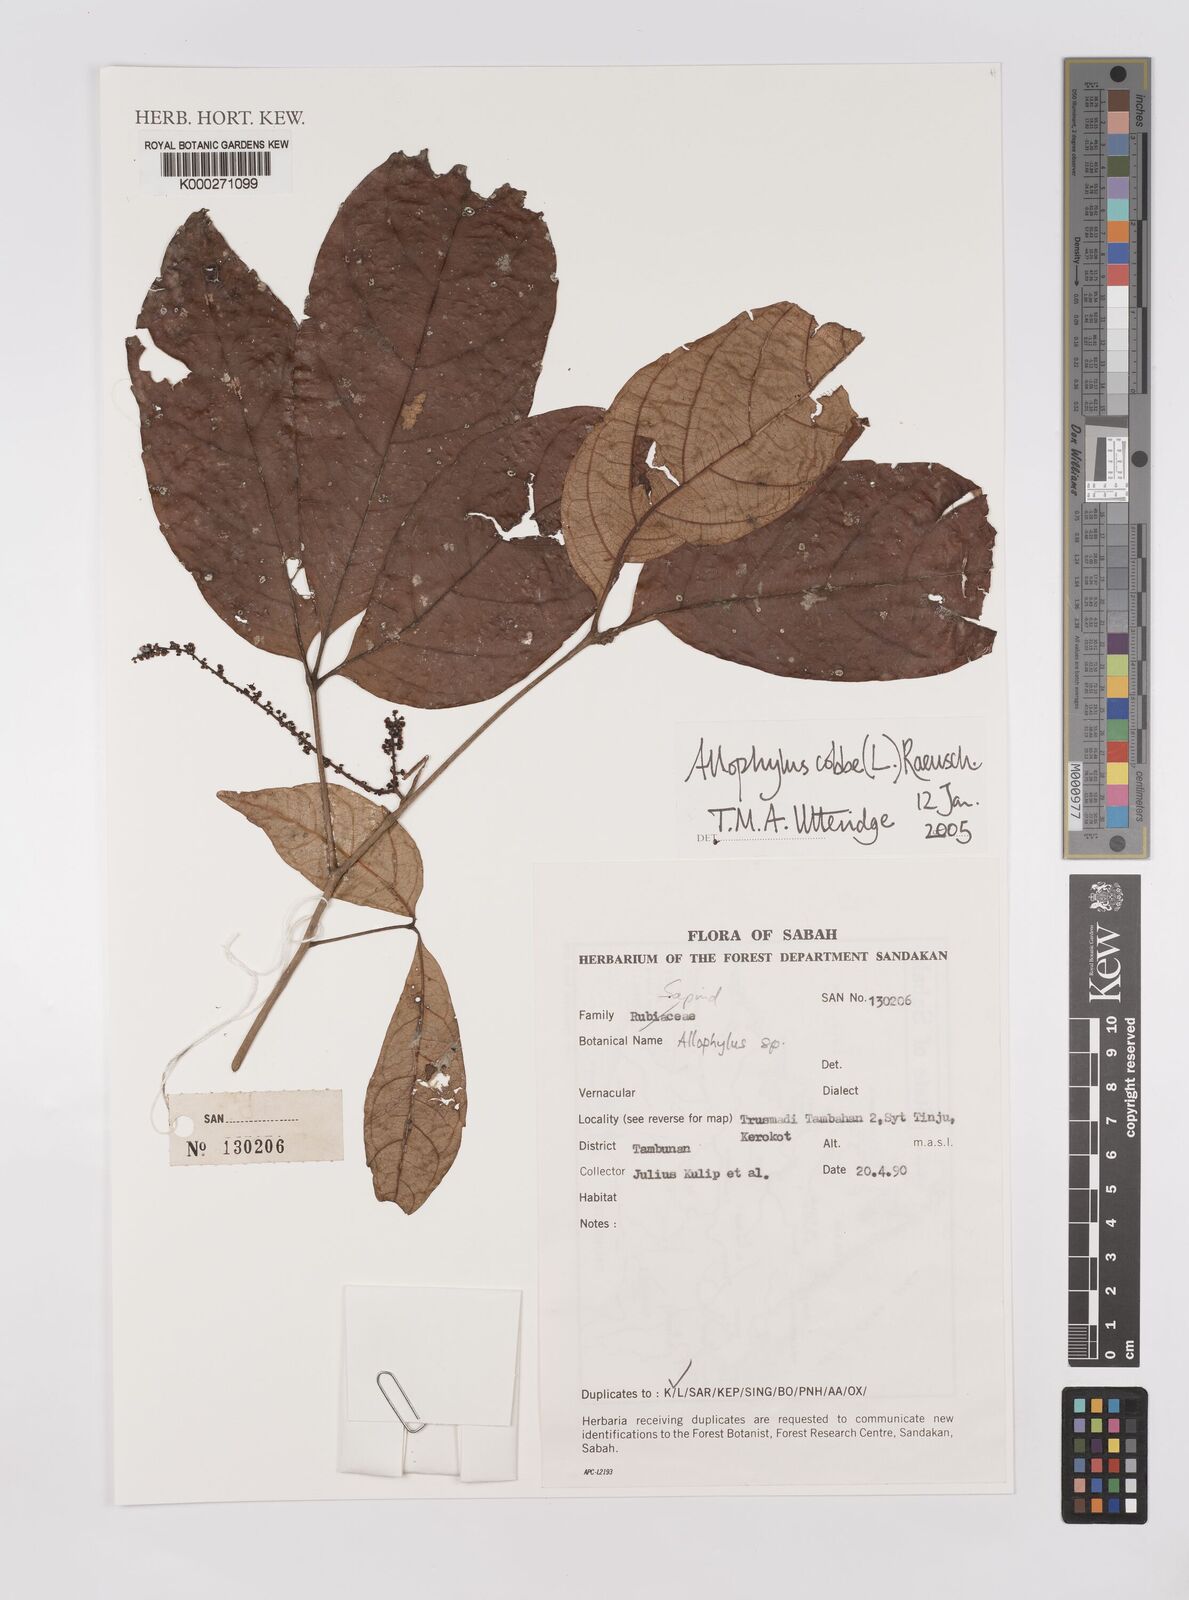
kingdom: Plantae
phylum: Tracheophyta
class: Magnoliopsida
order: Sapindales
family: Sapindaceae
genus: Allophylus
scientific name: Allophylus
